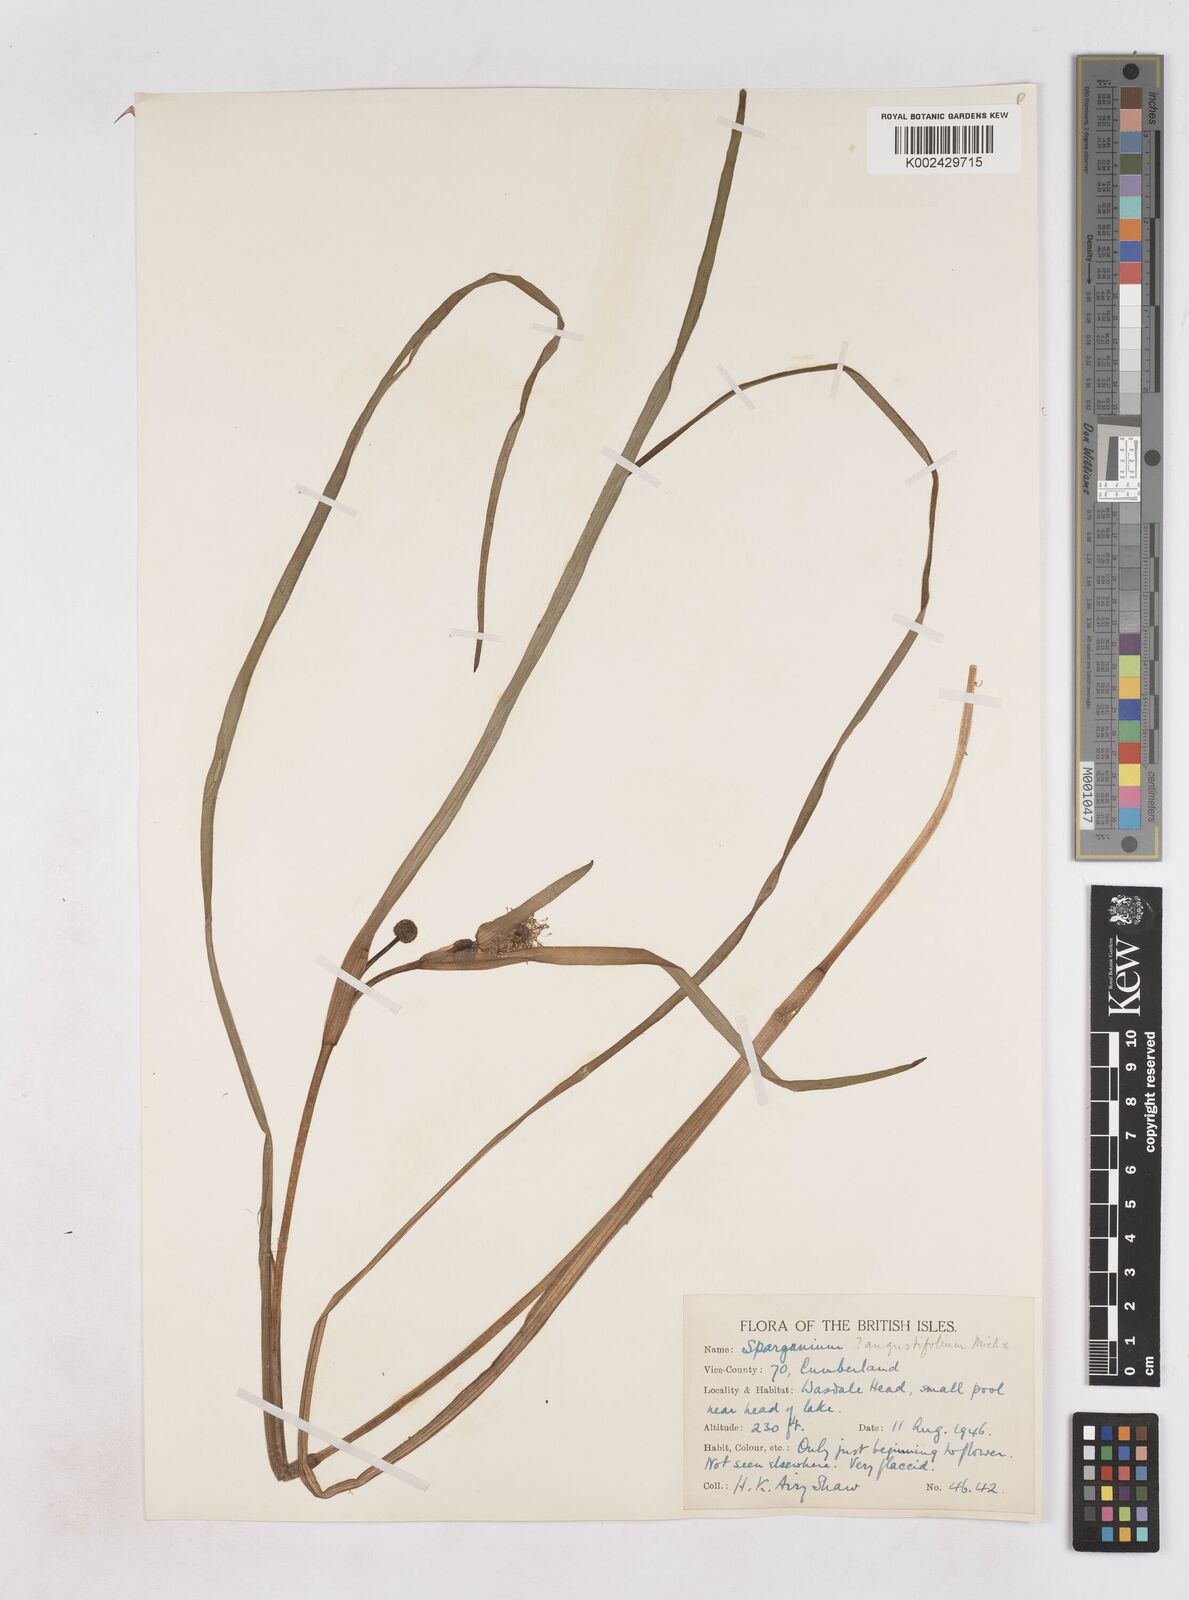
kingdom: Plantae
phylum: Tracheophyta
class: Liliopsida
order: Poales
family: Typhaceae
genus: Sparganium
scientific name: Sparganium angustifolium
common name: Floating bur-reed
